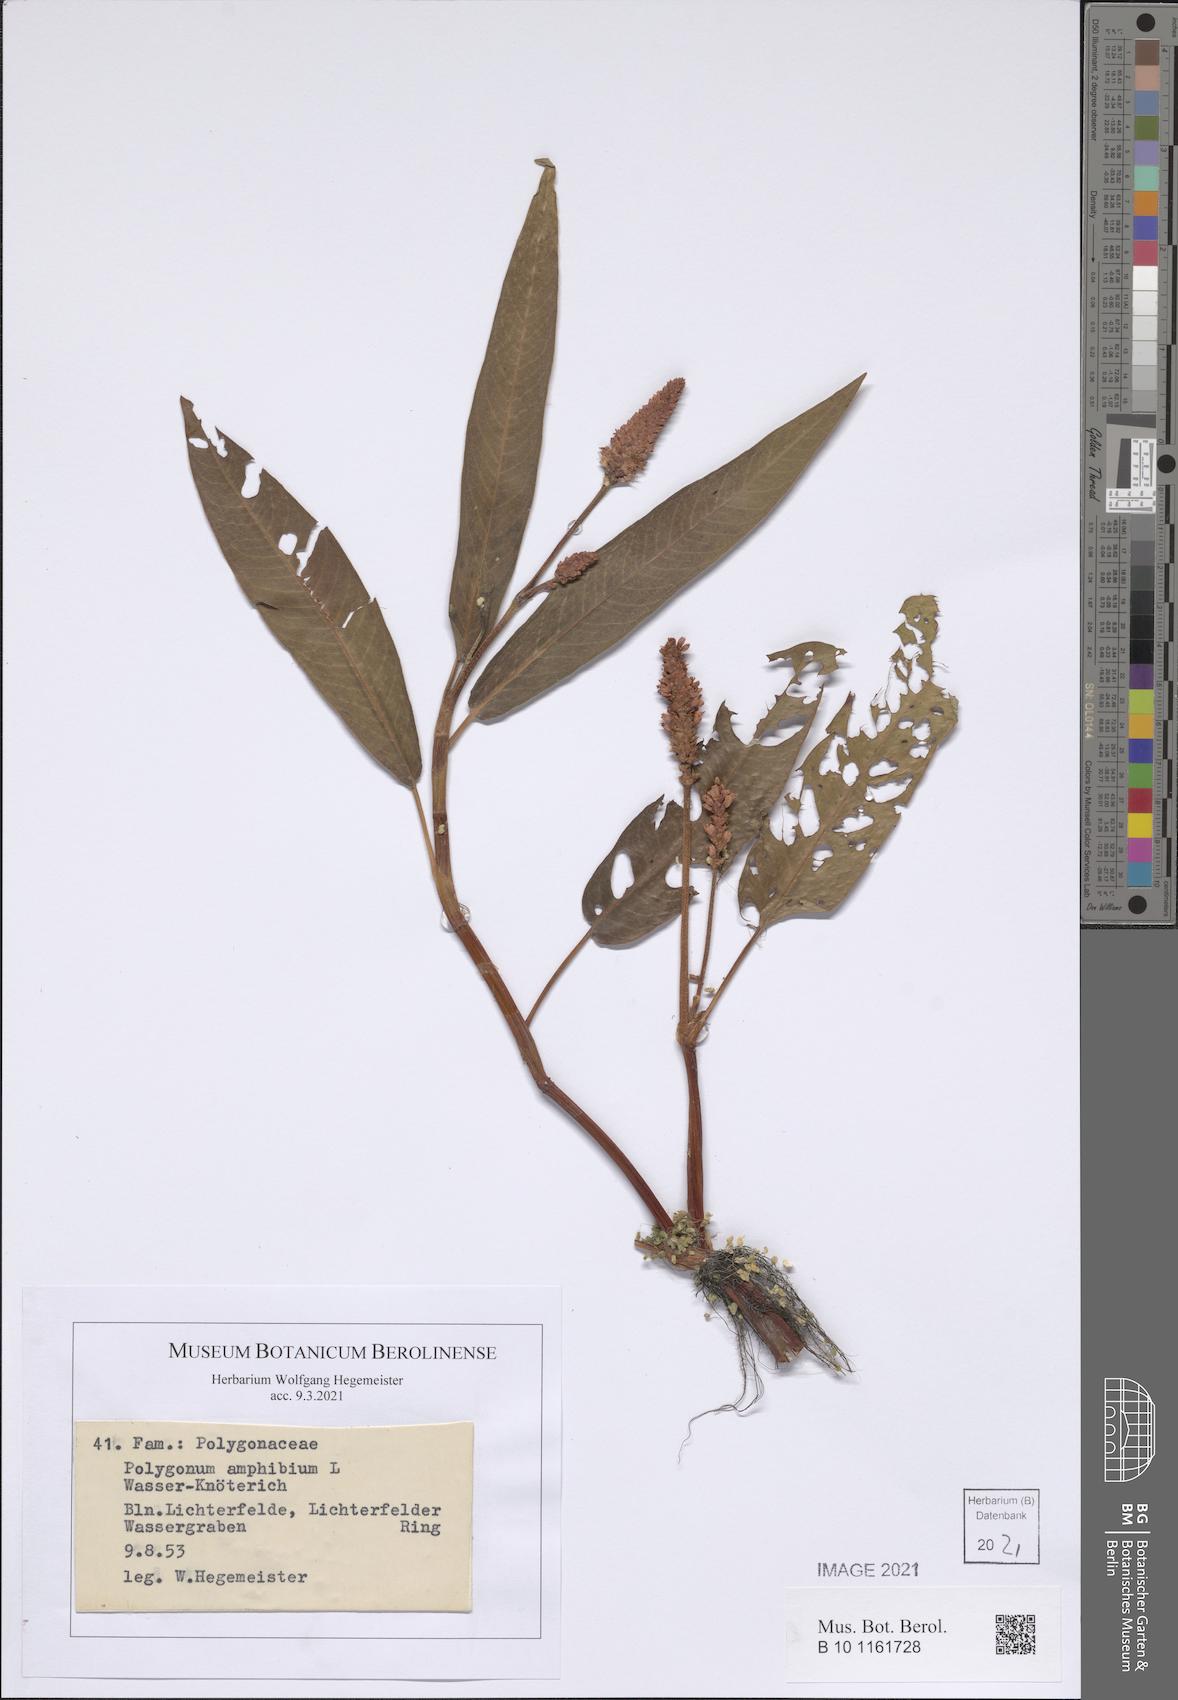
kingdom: Plantae
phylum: Tracheophyta
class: Magnoliopsida
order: Caryophyllales
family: Polygonaceae
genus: Persicaria
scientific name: Persicaria amphibia
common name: Amphibious bistort
